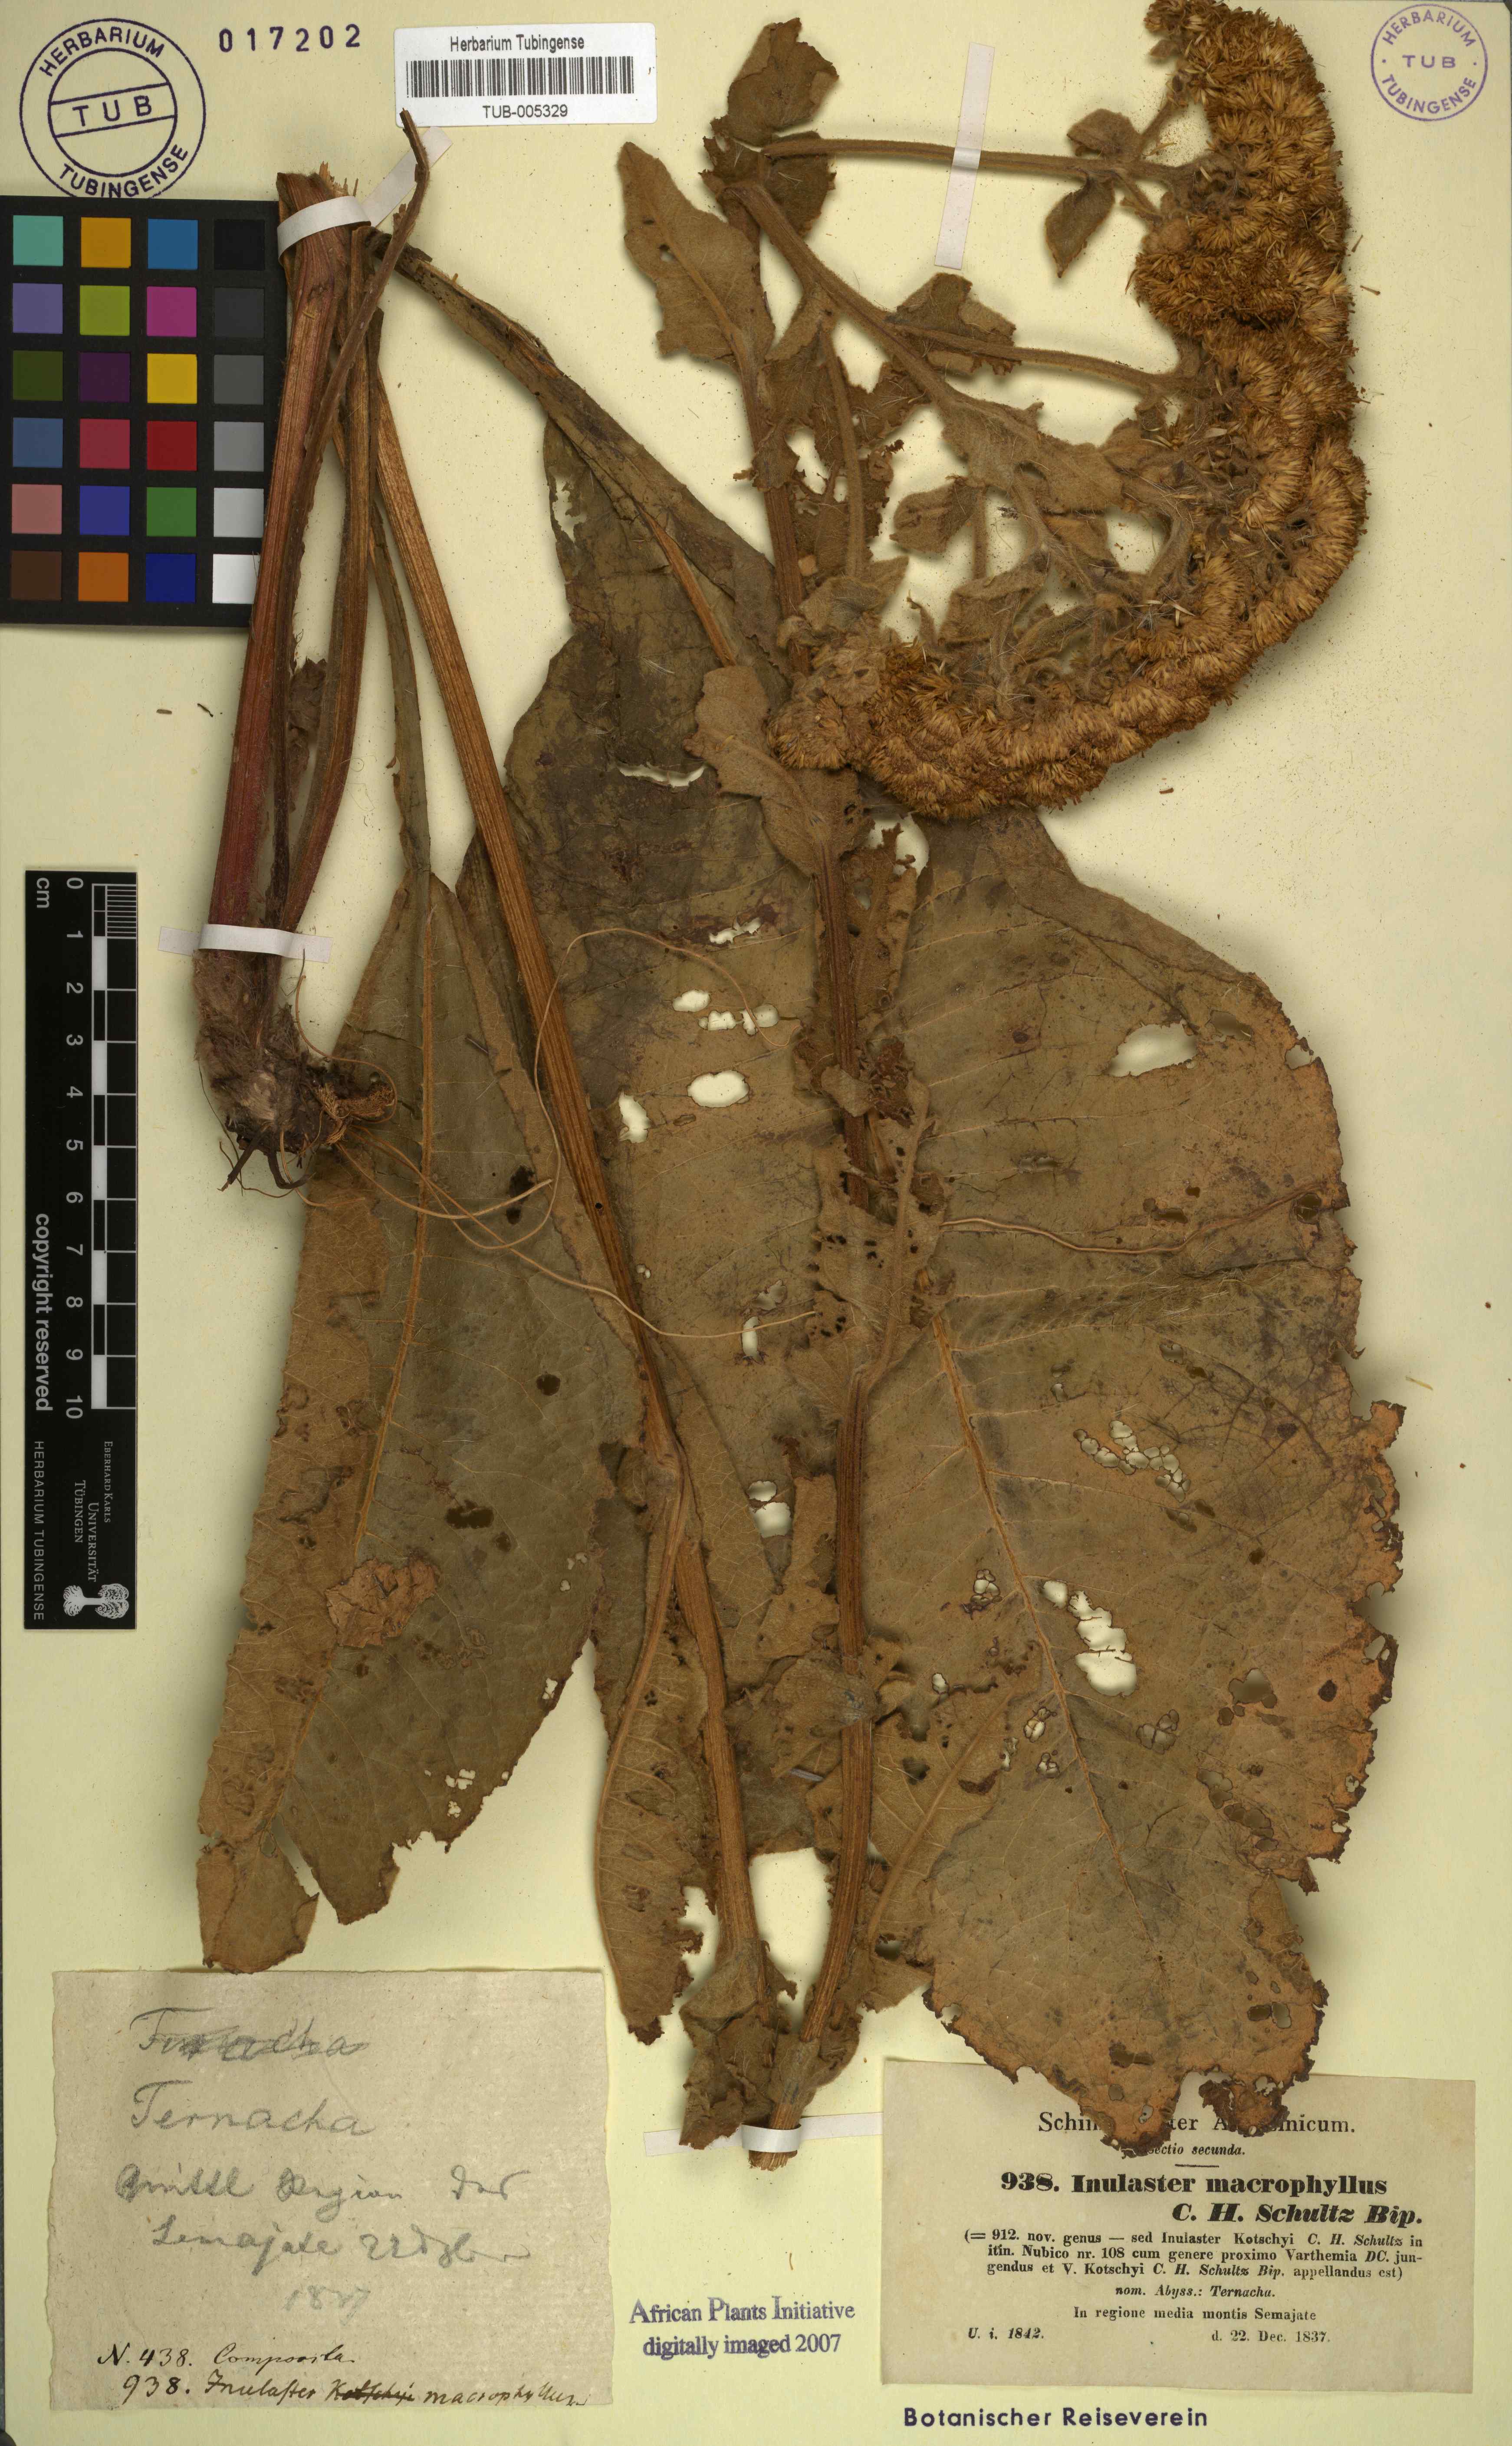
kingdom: Plantae
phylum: Tracheophyta
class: Magnoliopsida
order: Asterales
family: Asteraceae
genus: Monactinocephalus
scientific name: Monactinocephalus paniculatus
